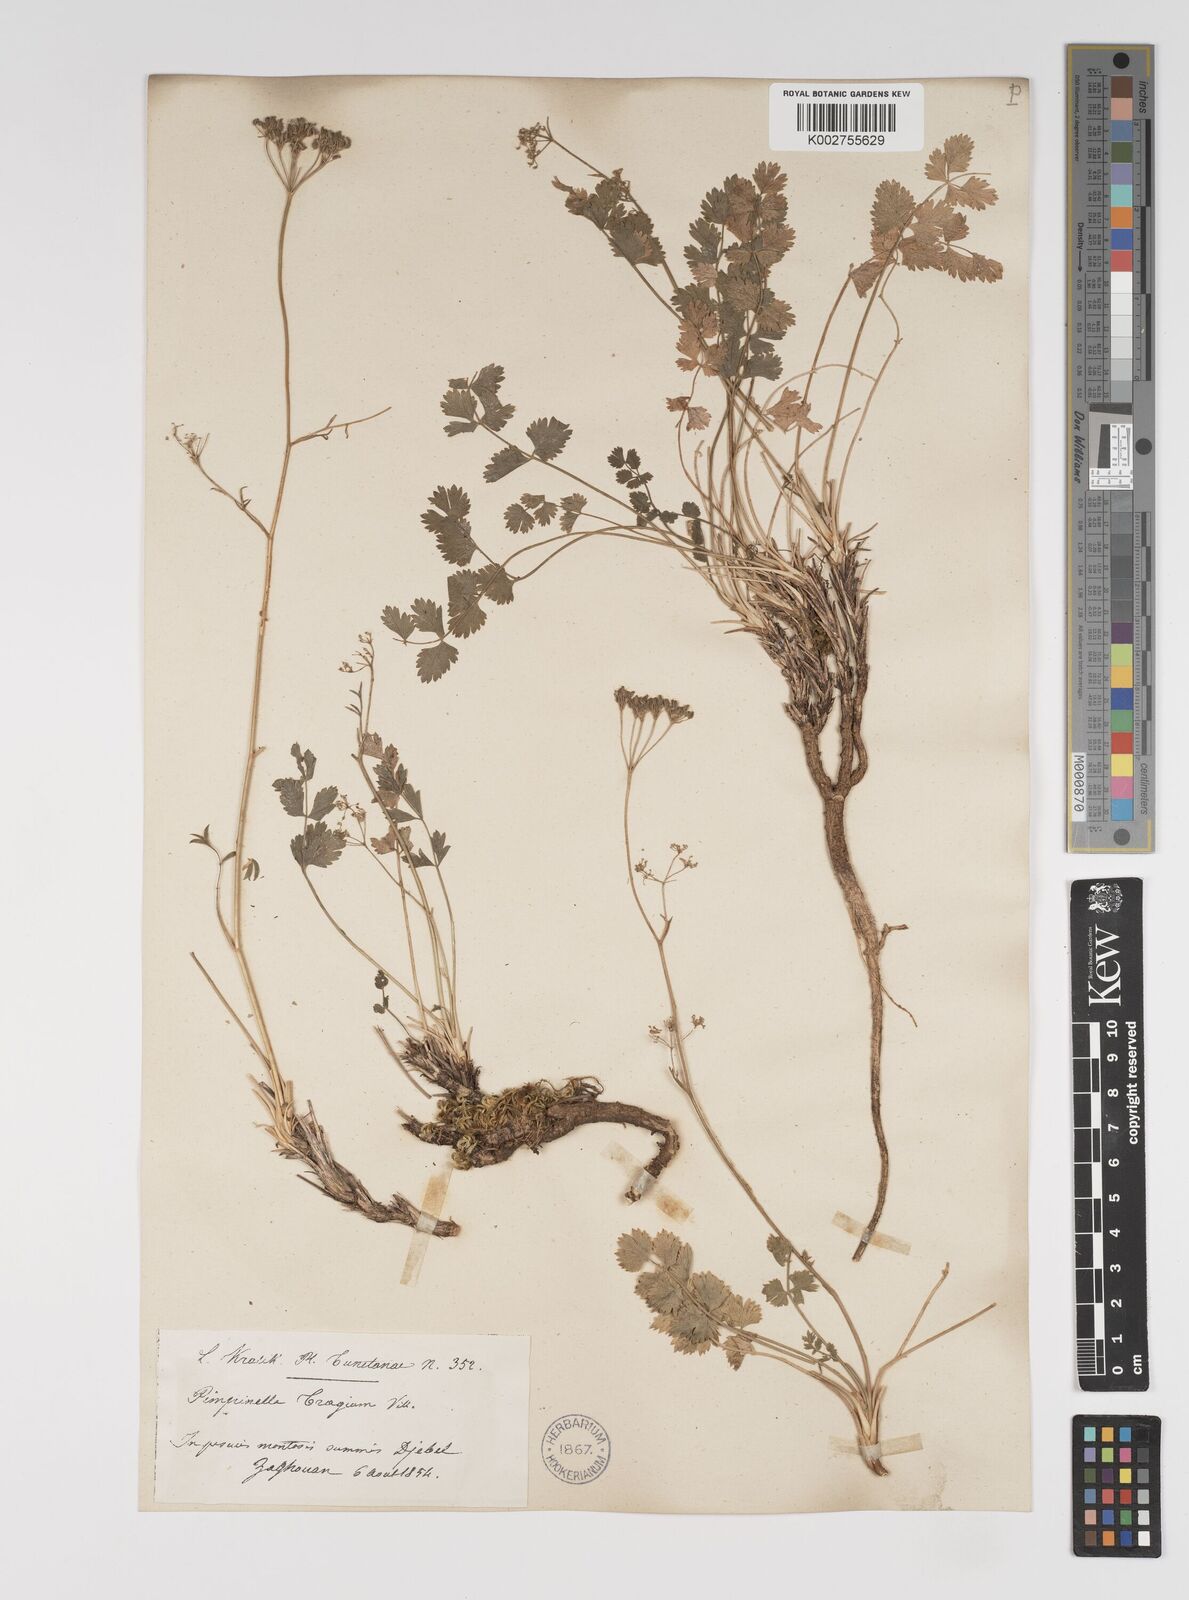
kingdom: Plantae
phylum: Tracheophyta
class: Magnoliopsida
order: Apiales
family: Apiaceae
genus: Pimpinella
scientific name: Pimpinella tragium
